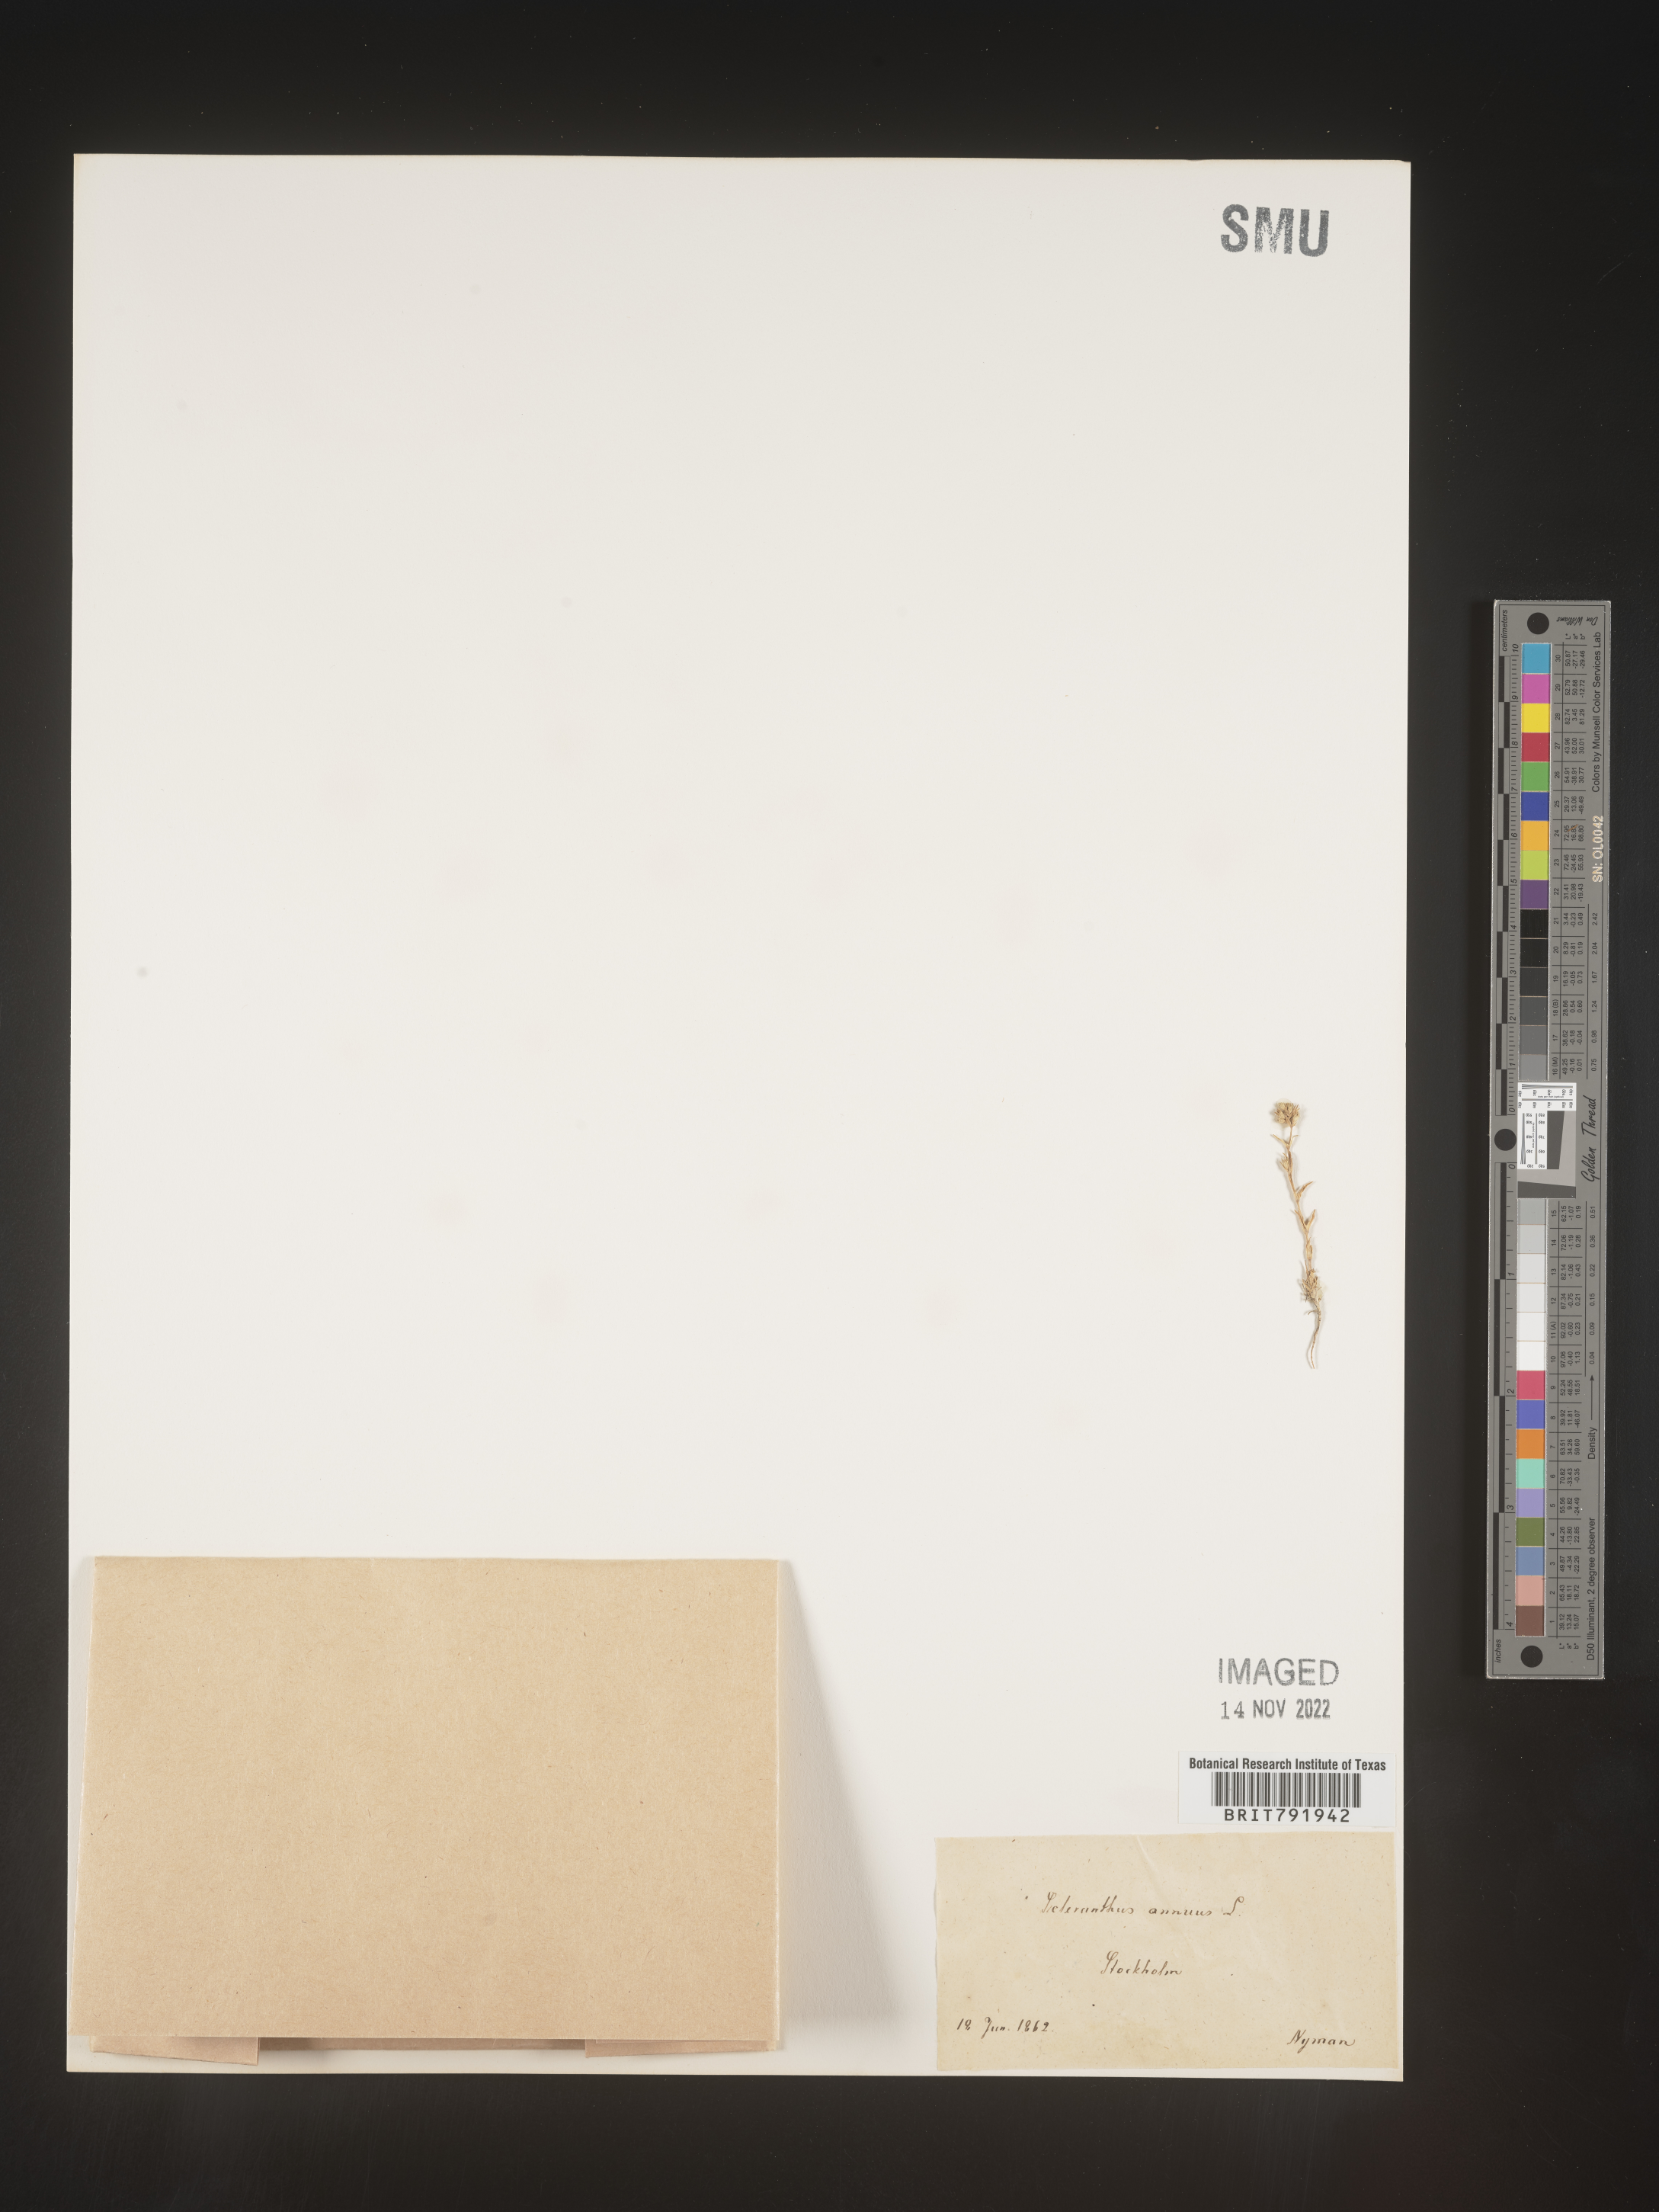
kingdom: Plantae
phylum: Tracheophyta
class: Magnoliopsida
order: Caryophyllales
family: Caryophyllaceae
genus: Scleranthus
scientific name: Scleranthus
